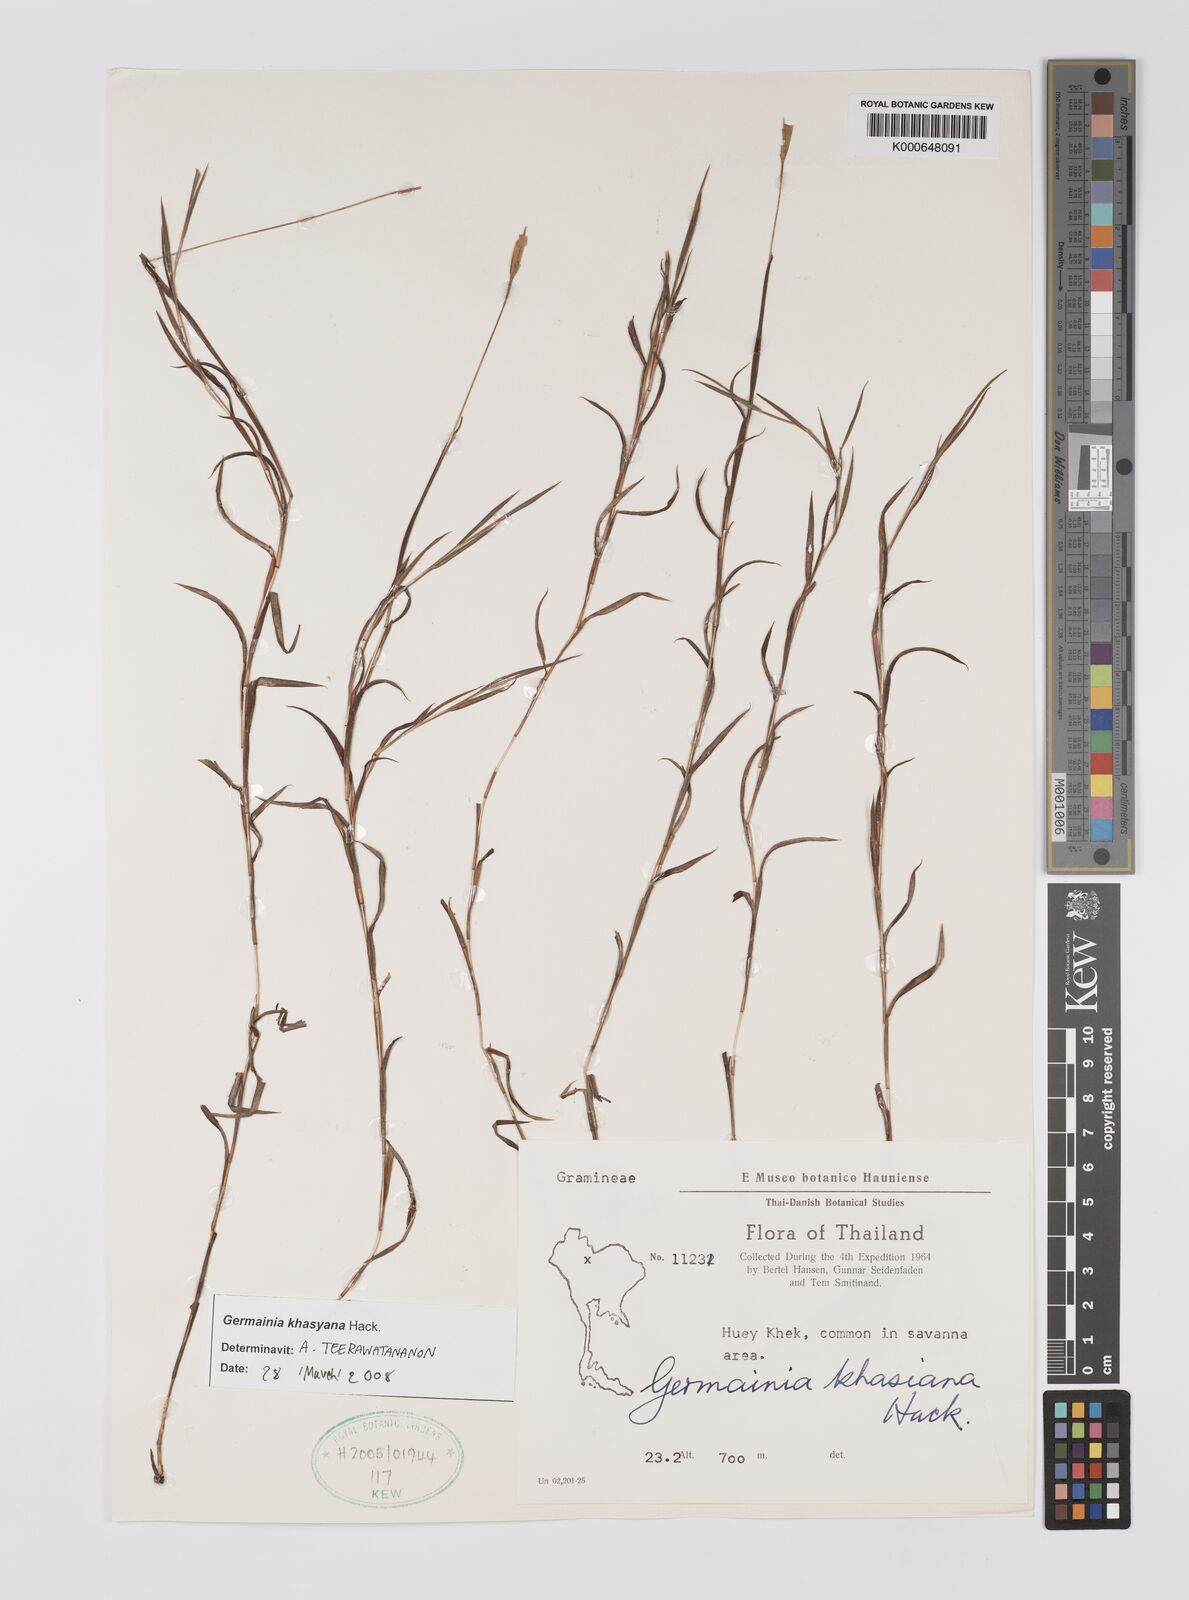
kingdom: Plantae
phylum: Tracheophyta
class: Liliopsida
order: Poales
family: Poaceae
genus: Germainia
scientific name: Germainia khasyana
